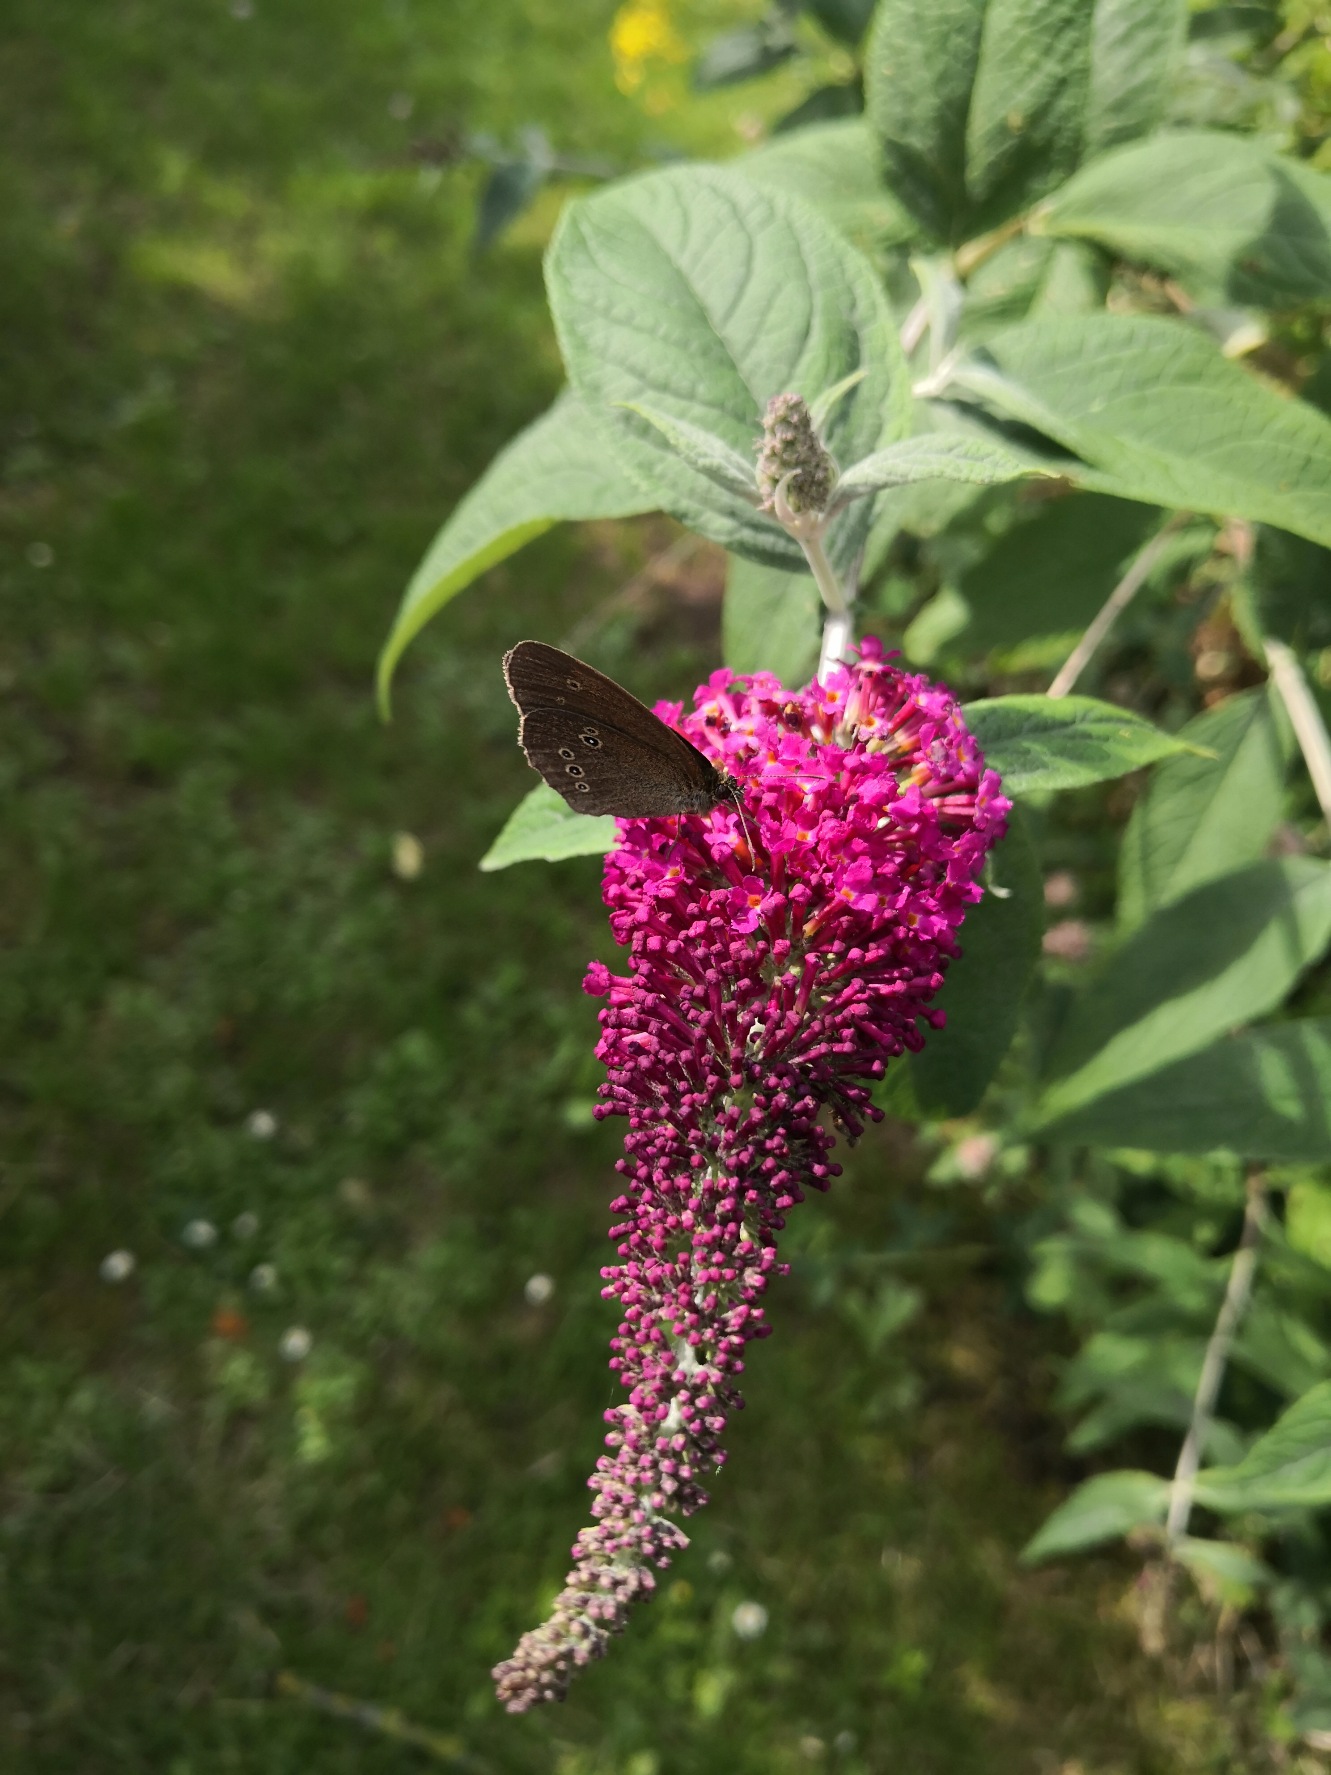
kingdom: Animalia
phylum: Arthropoda
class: Insecta
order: Lepidoptera
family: Nymphalidae
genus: Aphantopus
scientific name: Aphantopus hyperantus
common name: Engrandøje
